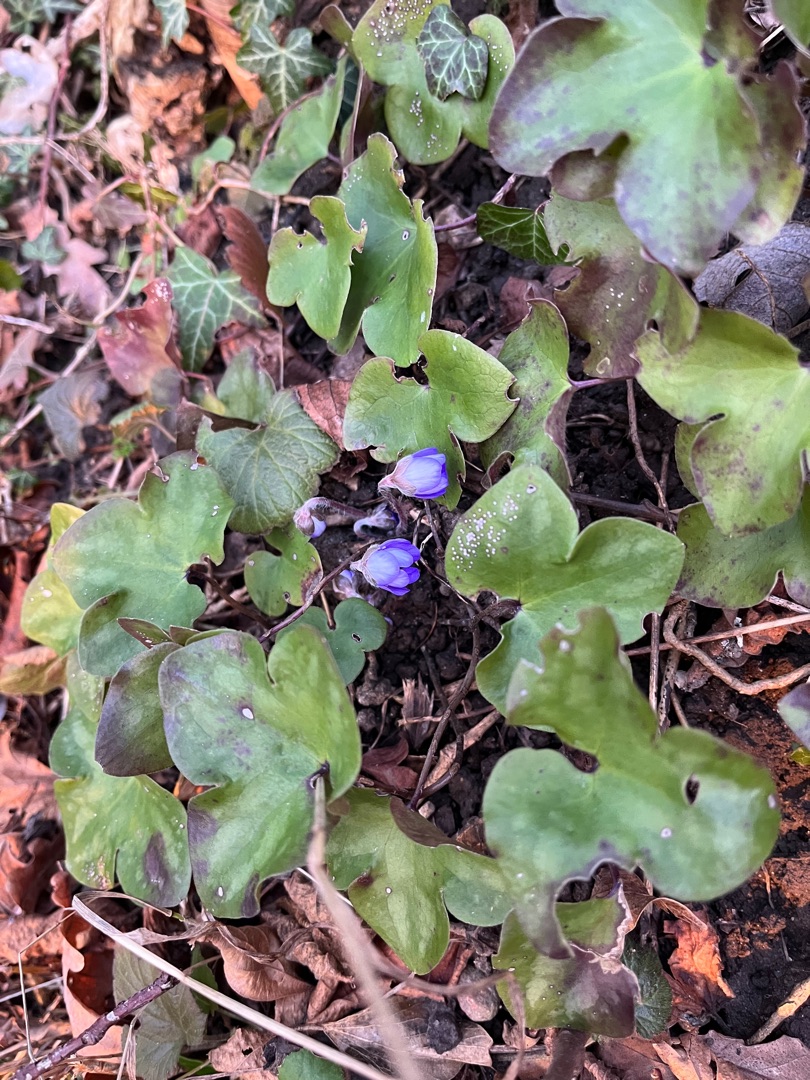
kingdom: Plantae
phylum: Tracheophyta
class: Magnoliopsida
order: Ranunculales
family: Ranunculaceae
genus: Hepatica
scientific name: Hepatica nobilis
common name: Blå anemone
